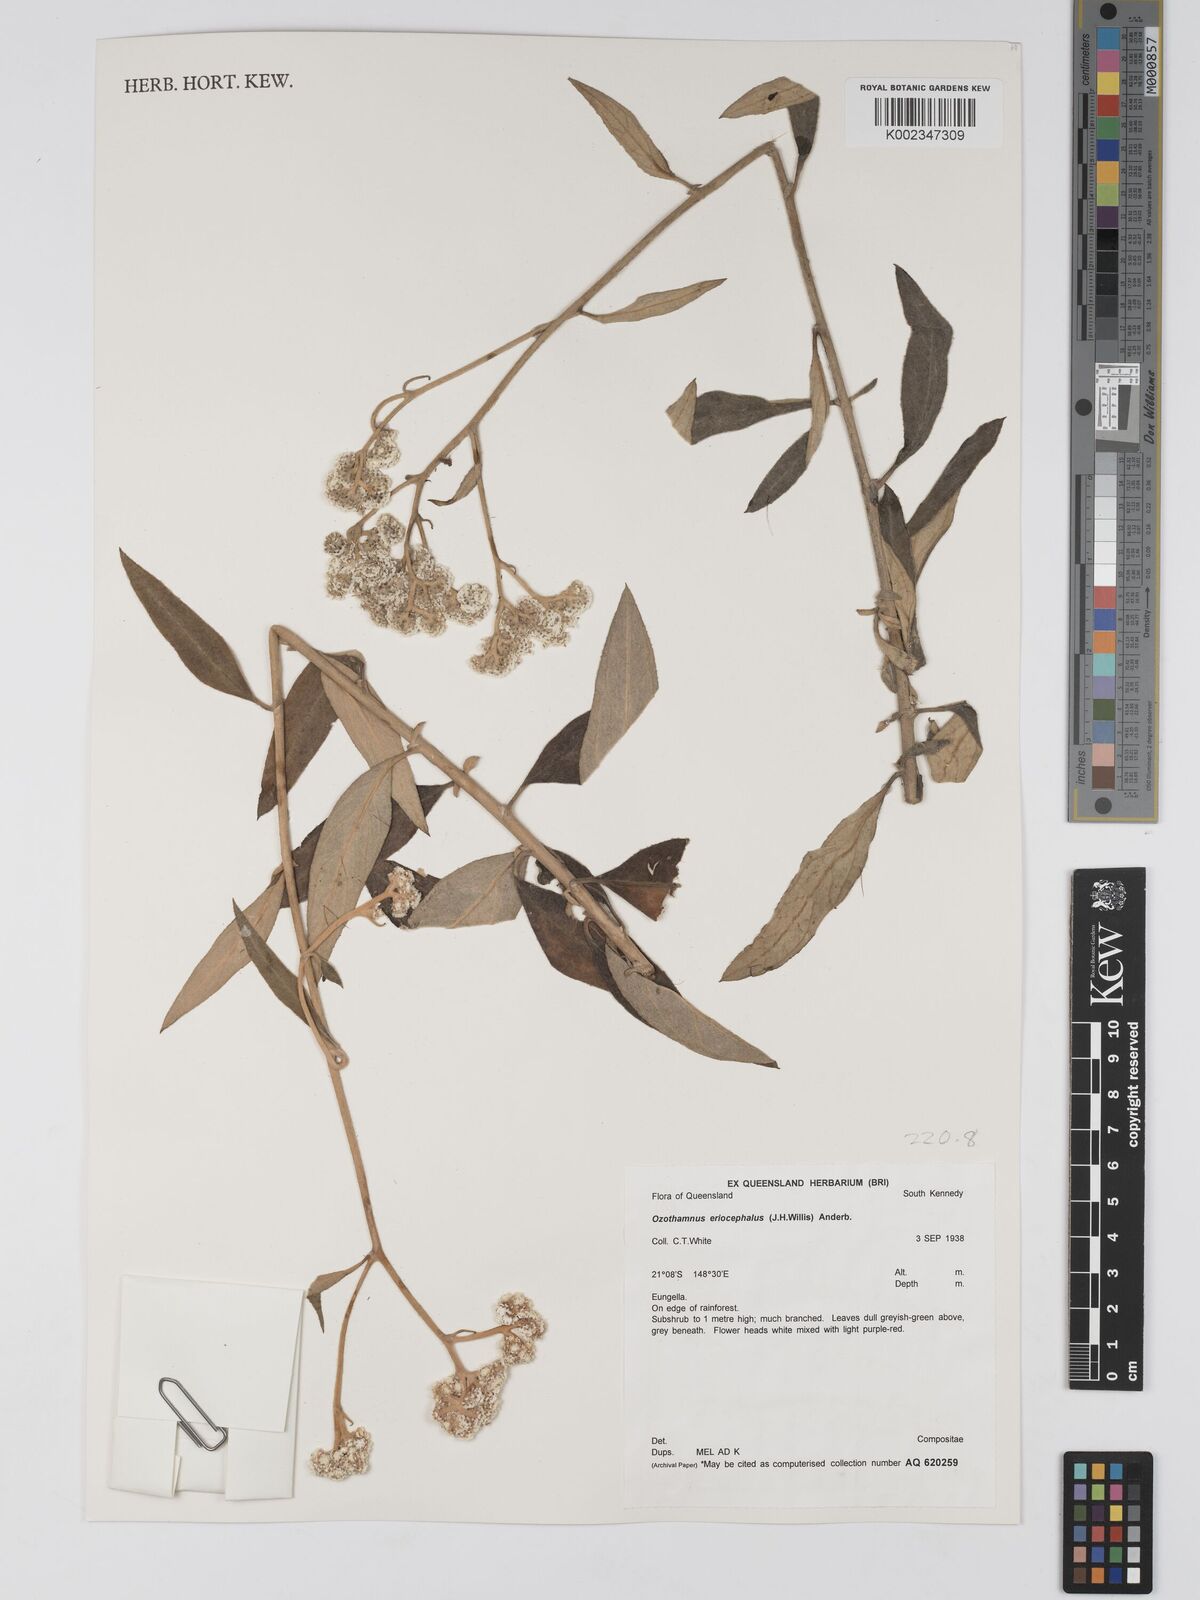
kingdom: Plantae
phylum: Tracheophyta
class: Magnoliopsida
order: Asterales
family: Asteraceae
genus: Ozothamnus
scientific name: Ozothamnus eriocephalus
